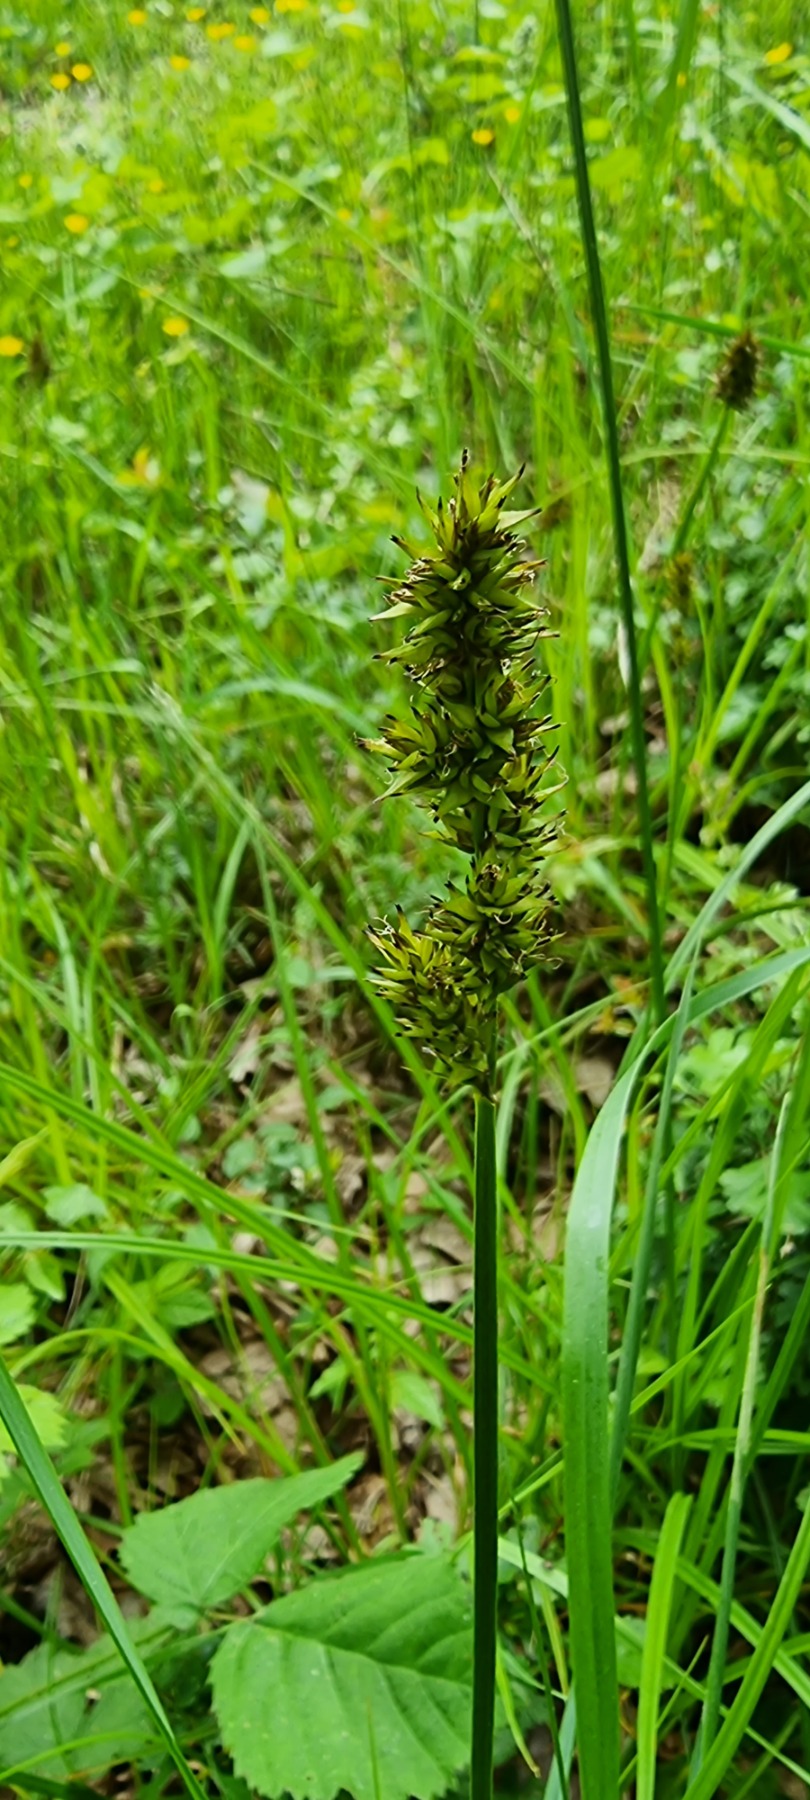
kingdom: Plantae
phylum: Tracheophyta
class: Liliopsida
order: Poales
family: Cyperaceae
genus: Carex
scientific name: Carex vulpina
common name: Ræve-star
